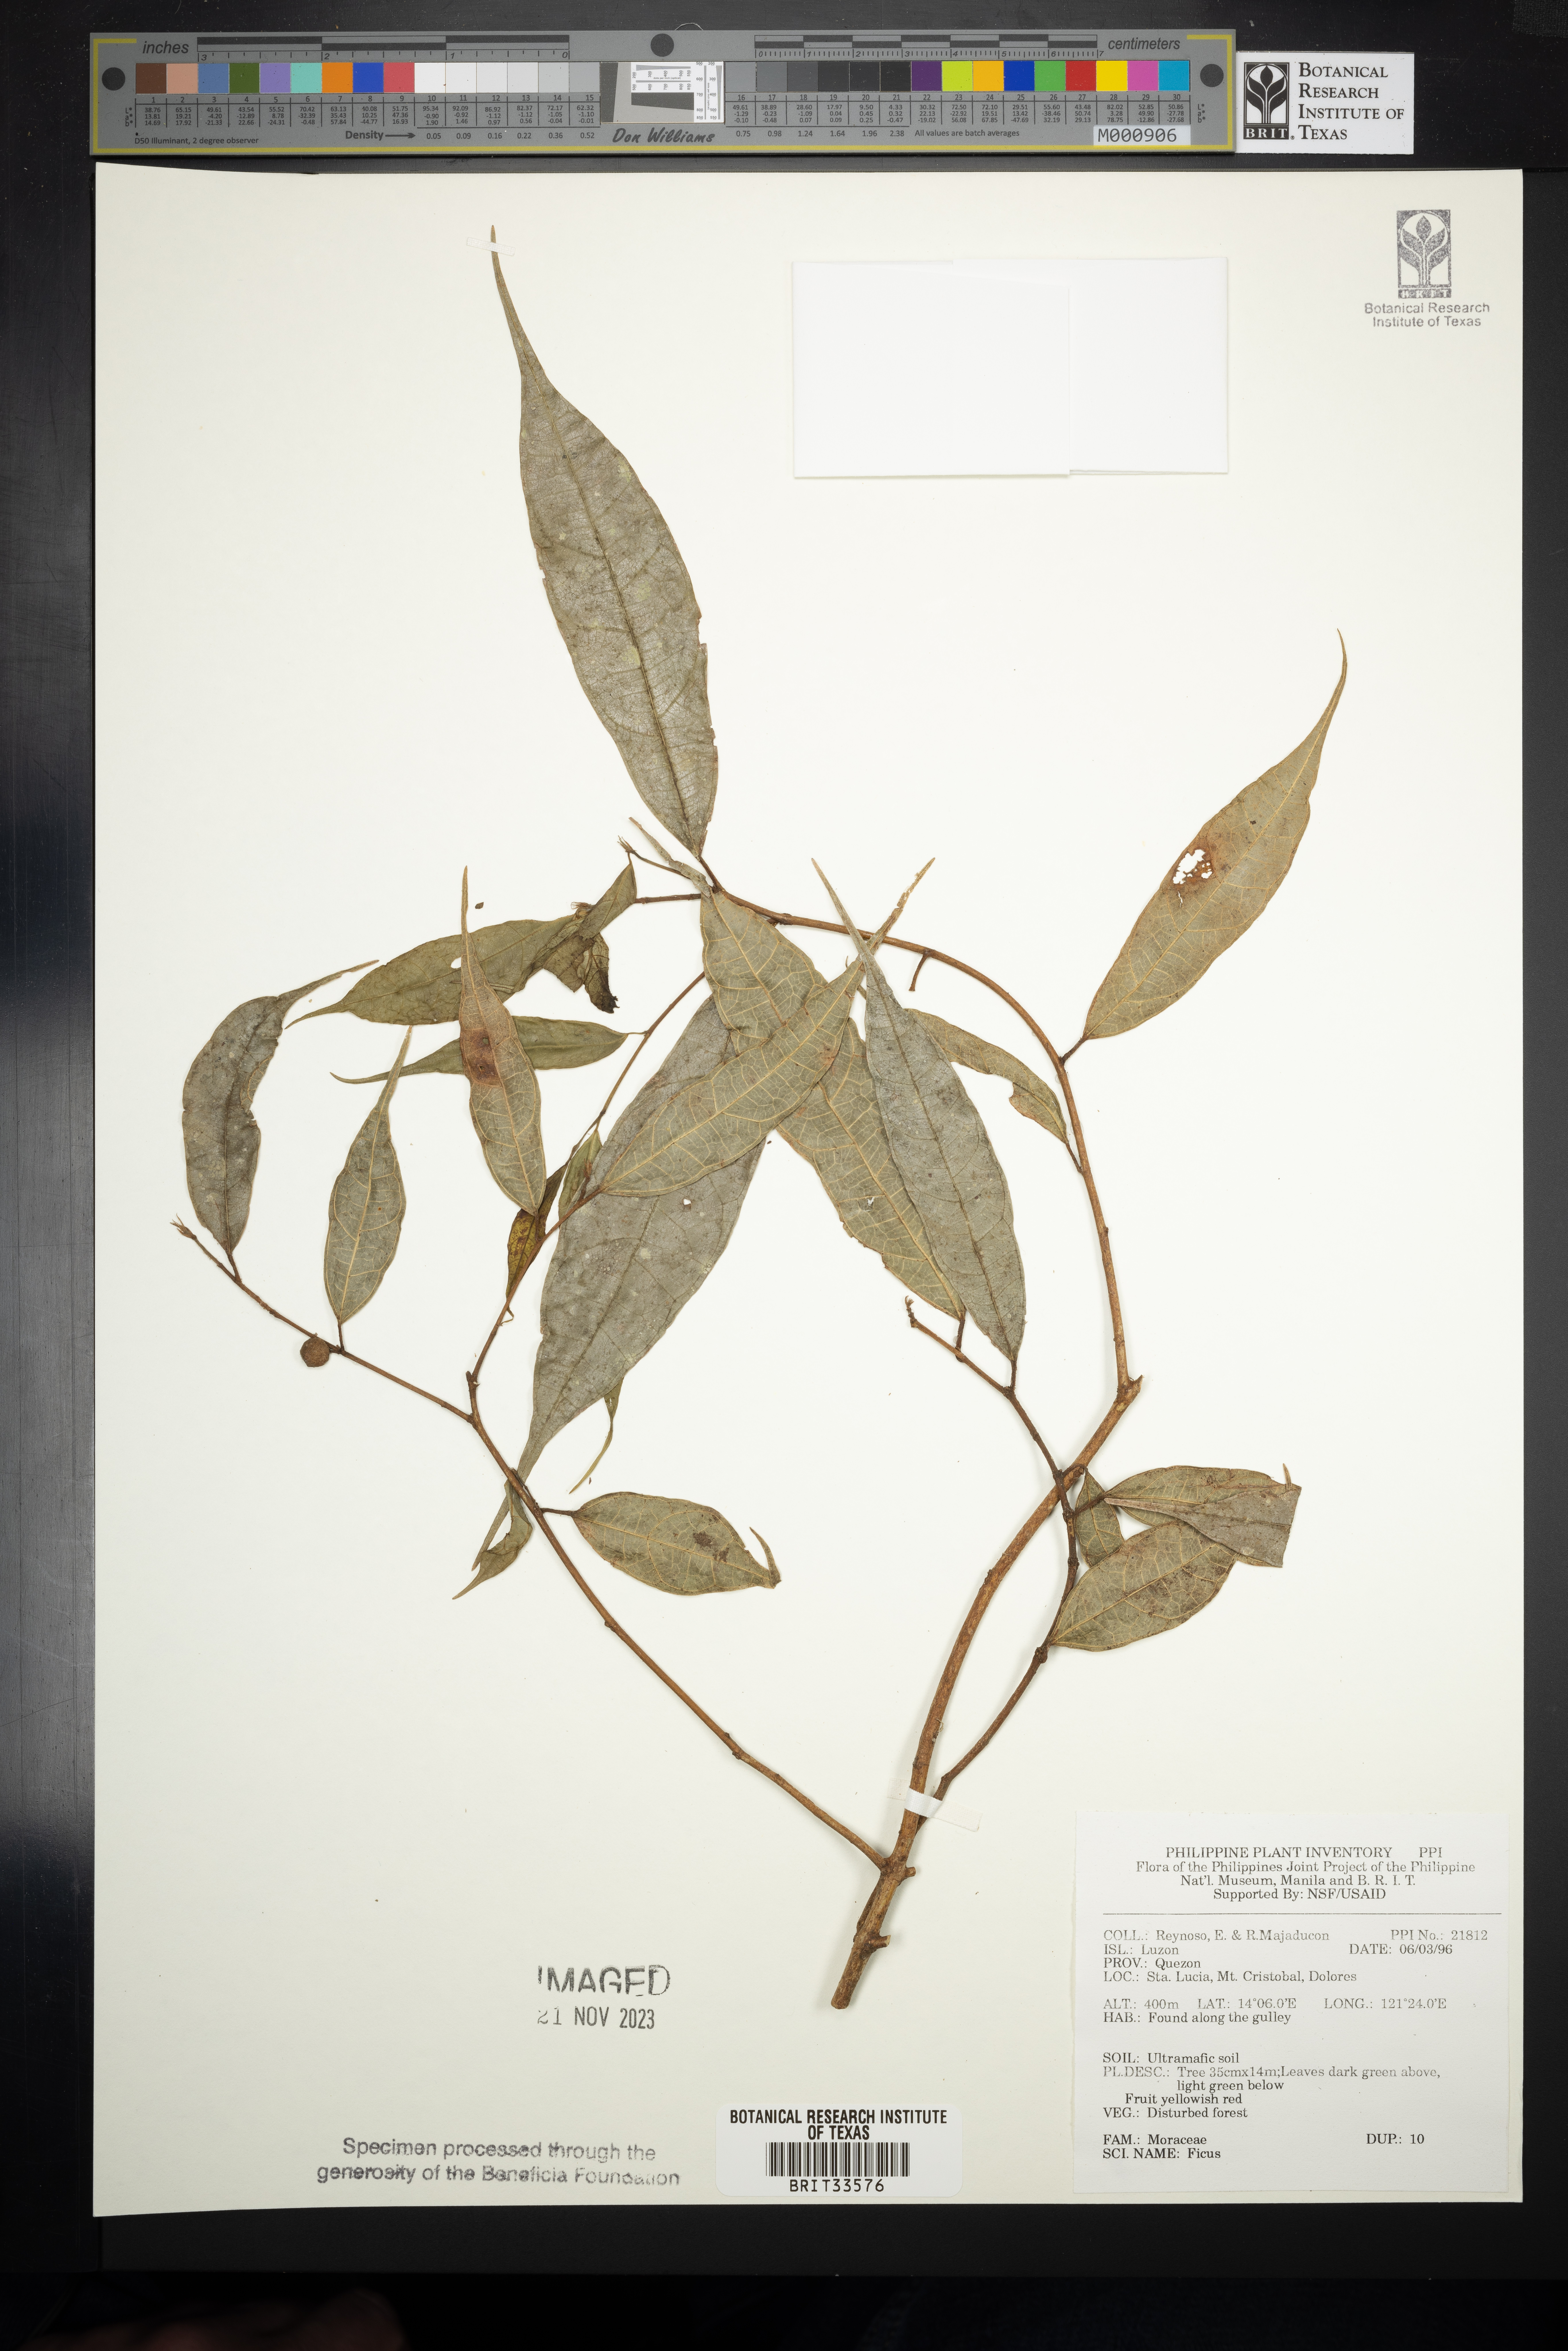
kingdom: Plantae
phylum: Tracheophyta
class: Magnoliopsida
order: Rosales
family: Moraceae
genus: Ficus
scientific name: Ficus
